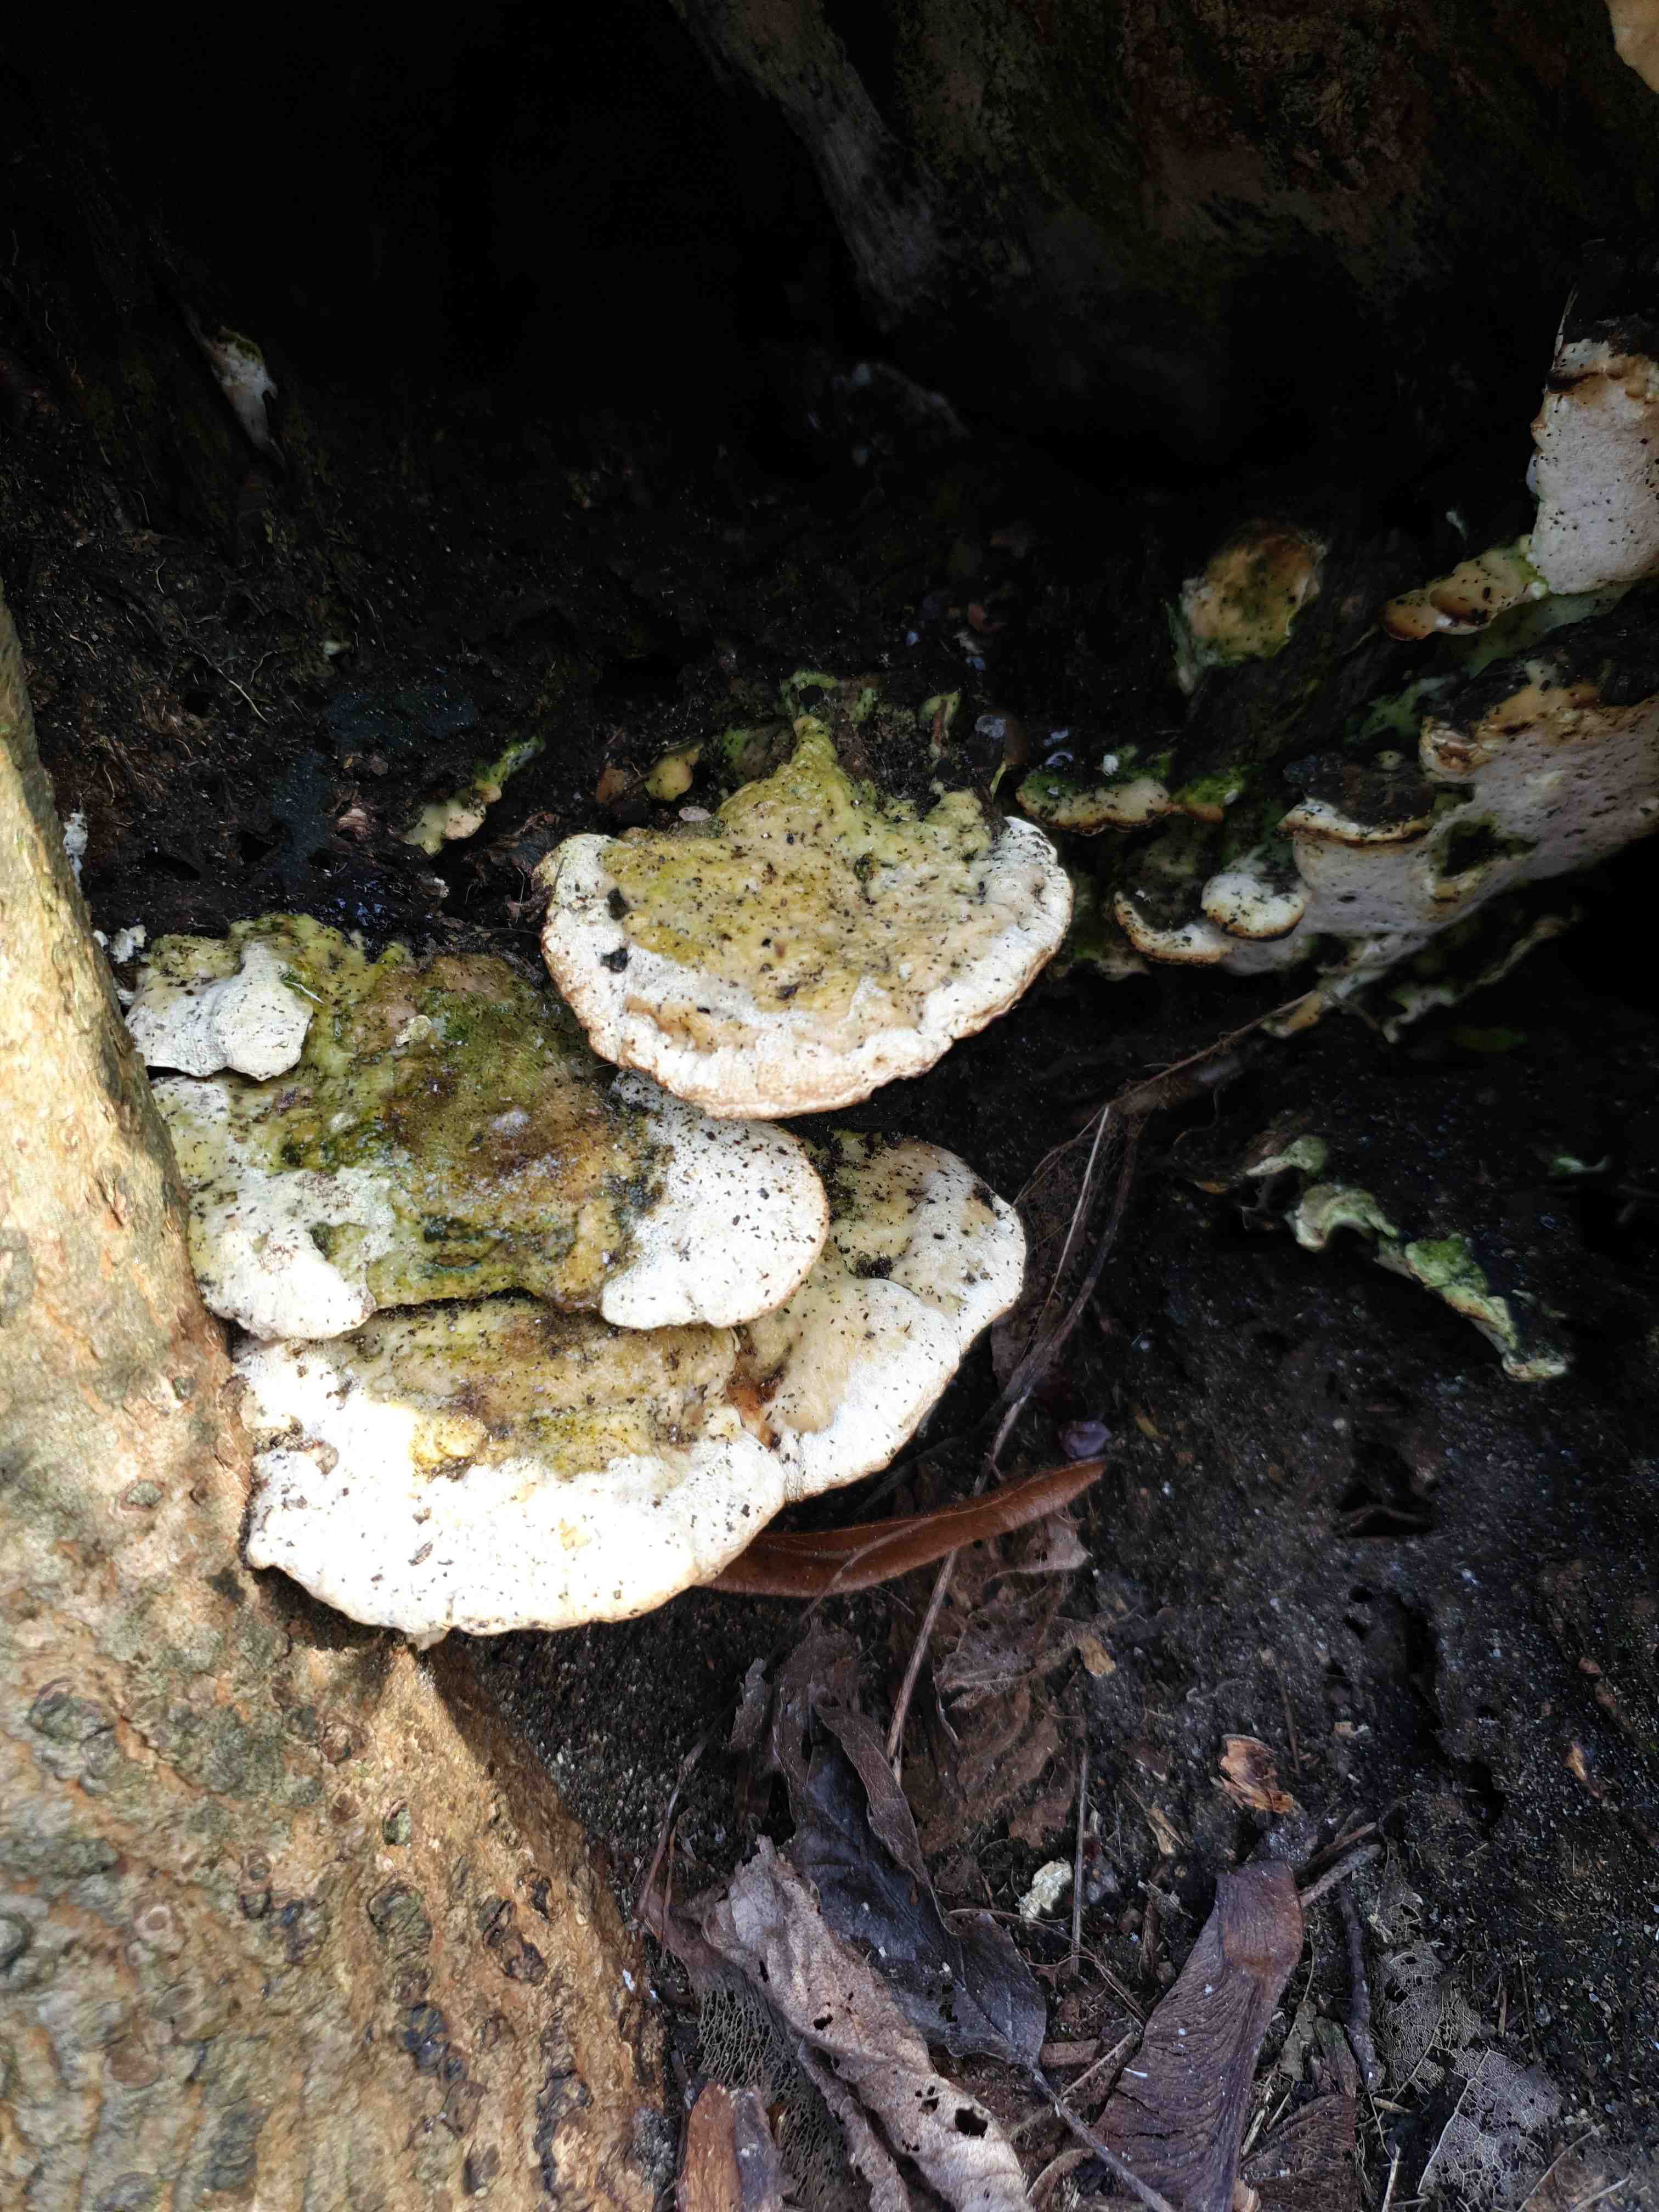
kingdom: Fungi
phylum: Basidiomycota
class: Agaricomycetes
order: Hymenochaetales
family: Oxyporaceae
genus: Oxyporus
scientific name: Oxyporus populinus
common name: sammenvokset trylleporesvamp
